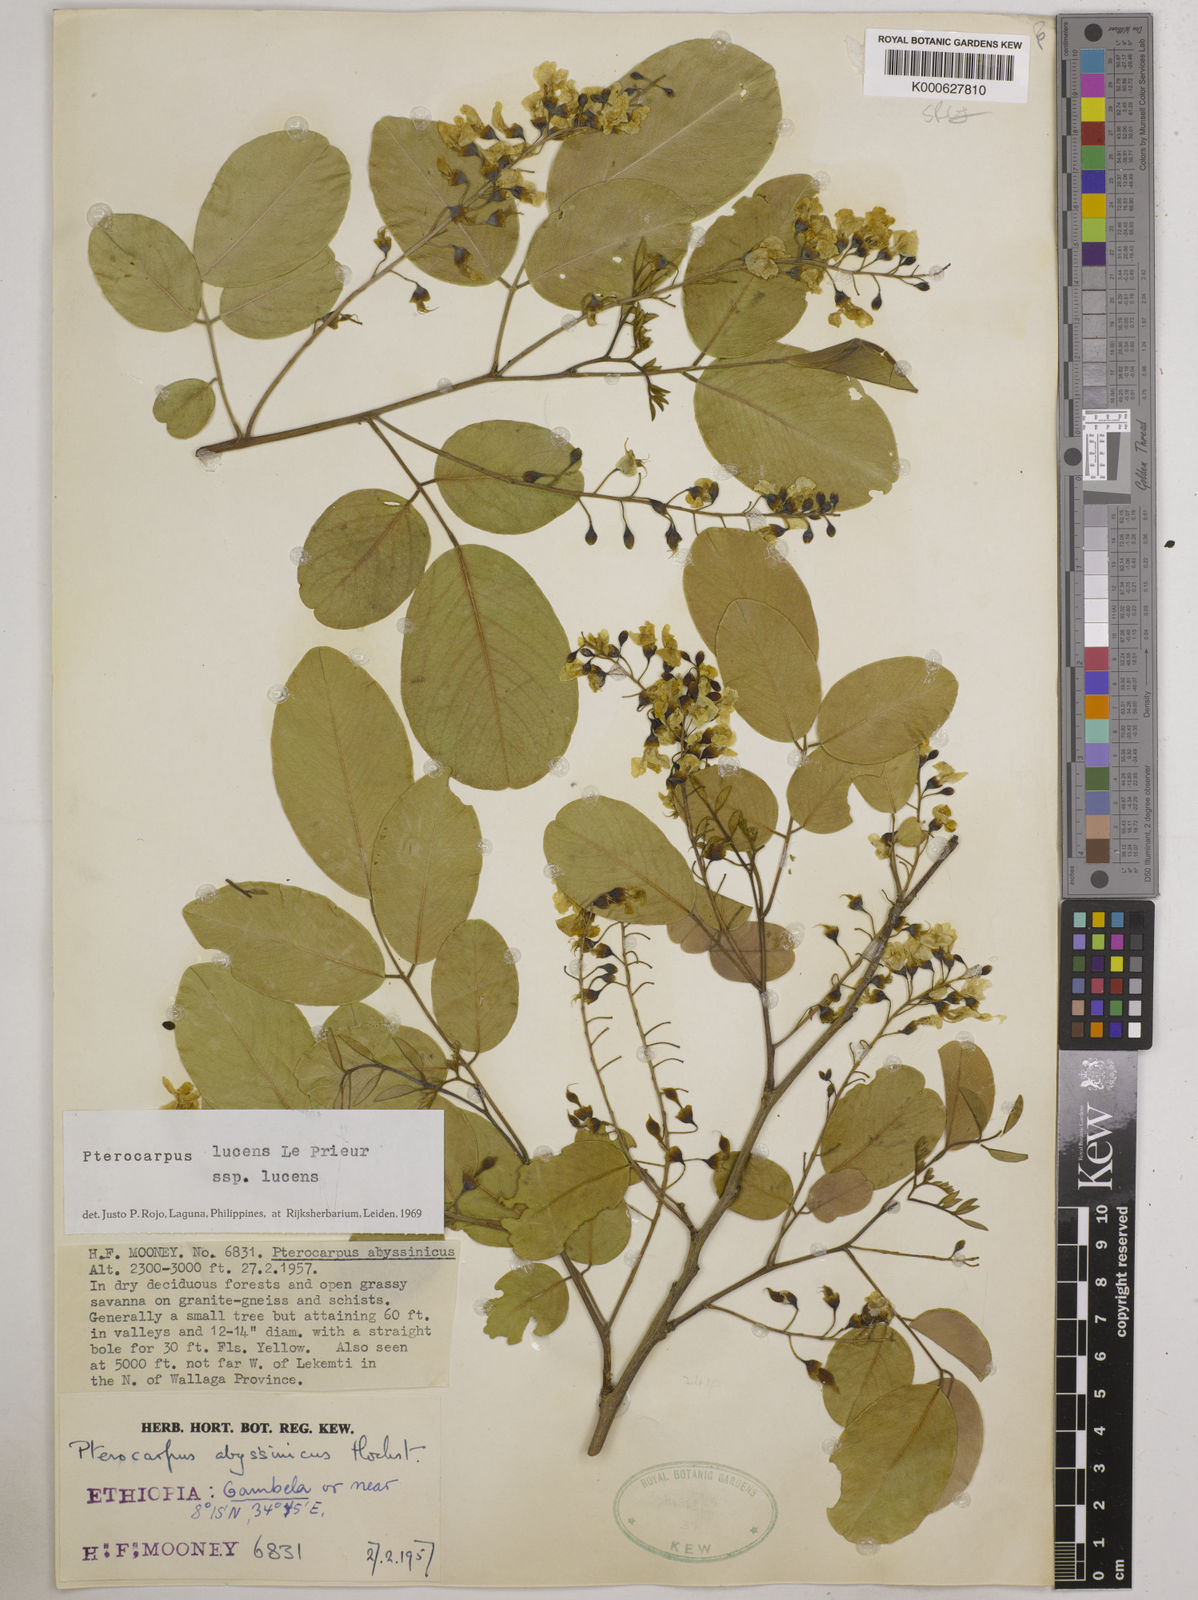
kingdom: Plantae
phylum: Tracheophyta
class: Magnoliopsida
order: Fabales
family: Fabaceae
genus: Pterocarpus
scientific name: Pterocarpus lucens
